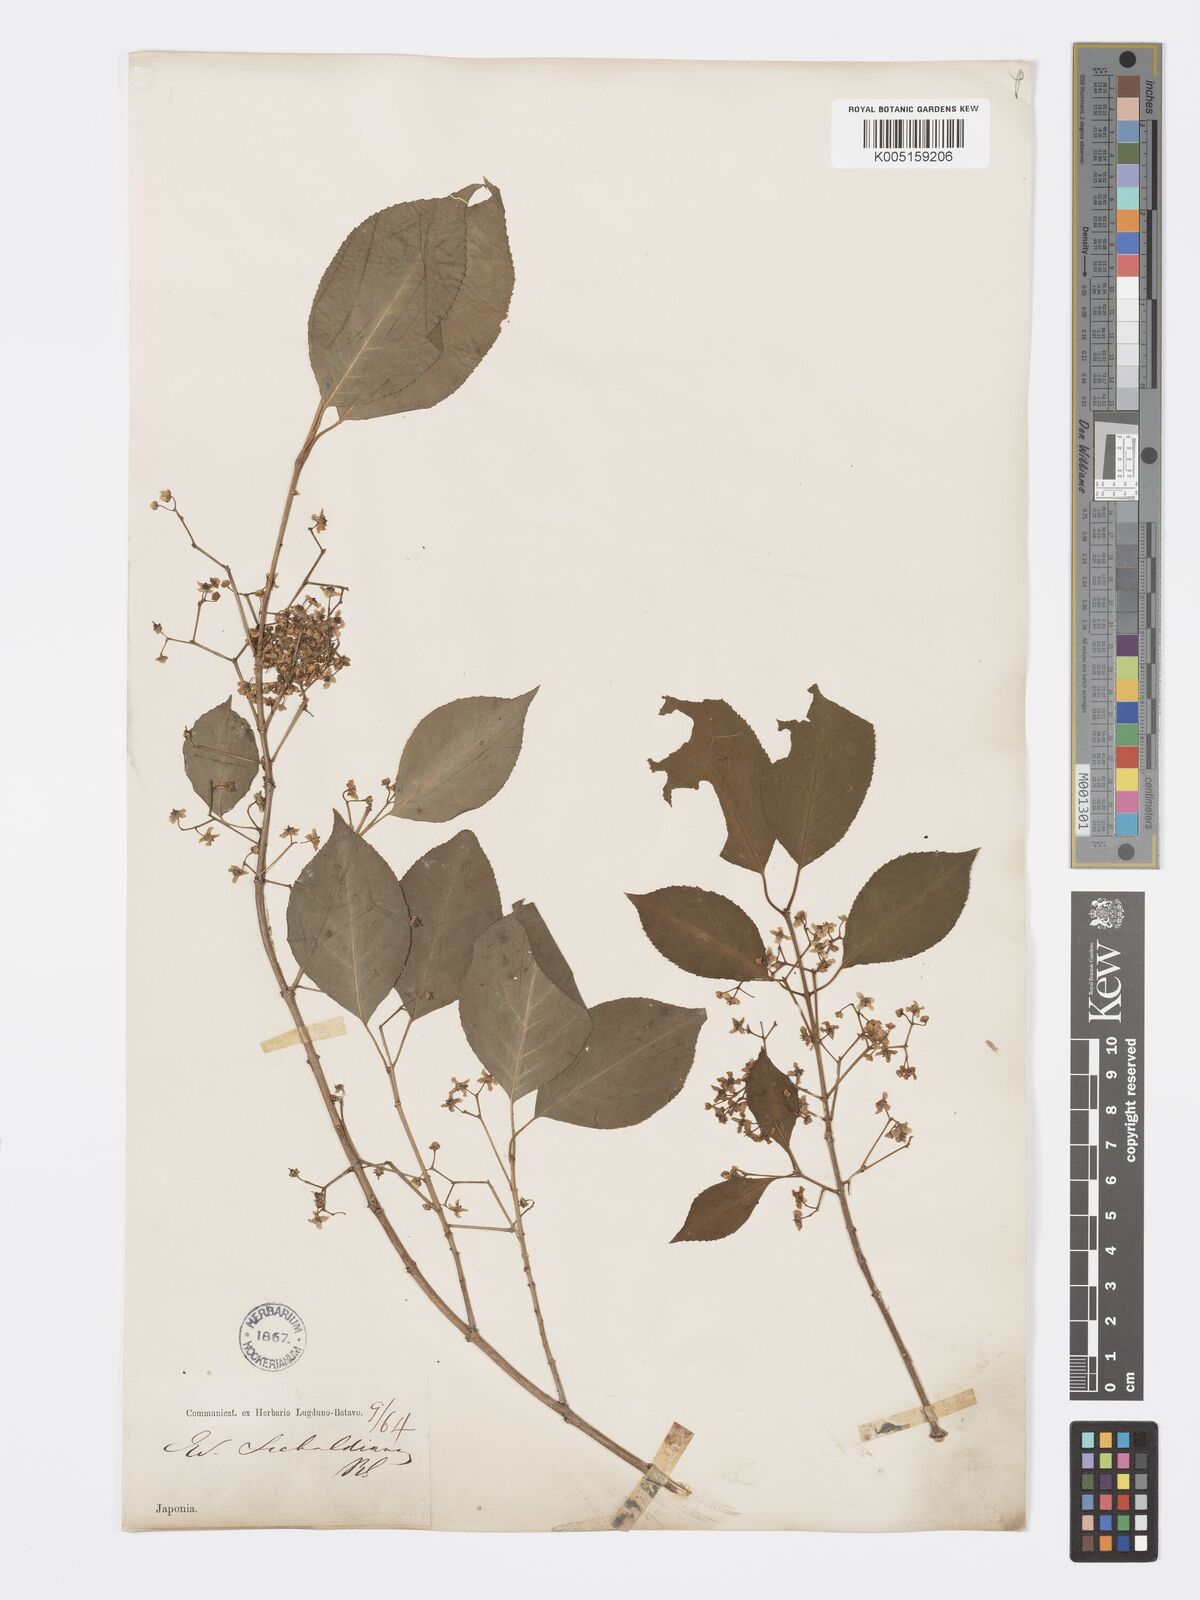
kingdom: Plantae
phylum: Tracheophyta
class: Magnoliopsida
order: Celastrales
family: Celastraceae
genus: Euonymus
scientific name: Euonymus hamiltonianus
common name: Hamilton's spindletree
